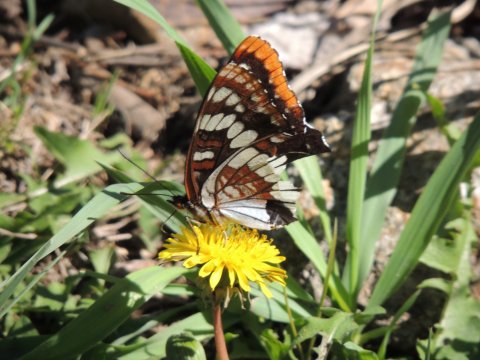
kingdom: Animalia
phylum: Arthropoda
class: Insecta
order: Lepidoptera
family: Nymphalidae
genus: Limenitis
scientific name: Limenitis lorquini
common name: Lorquin's Admiral
